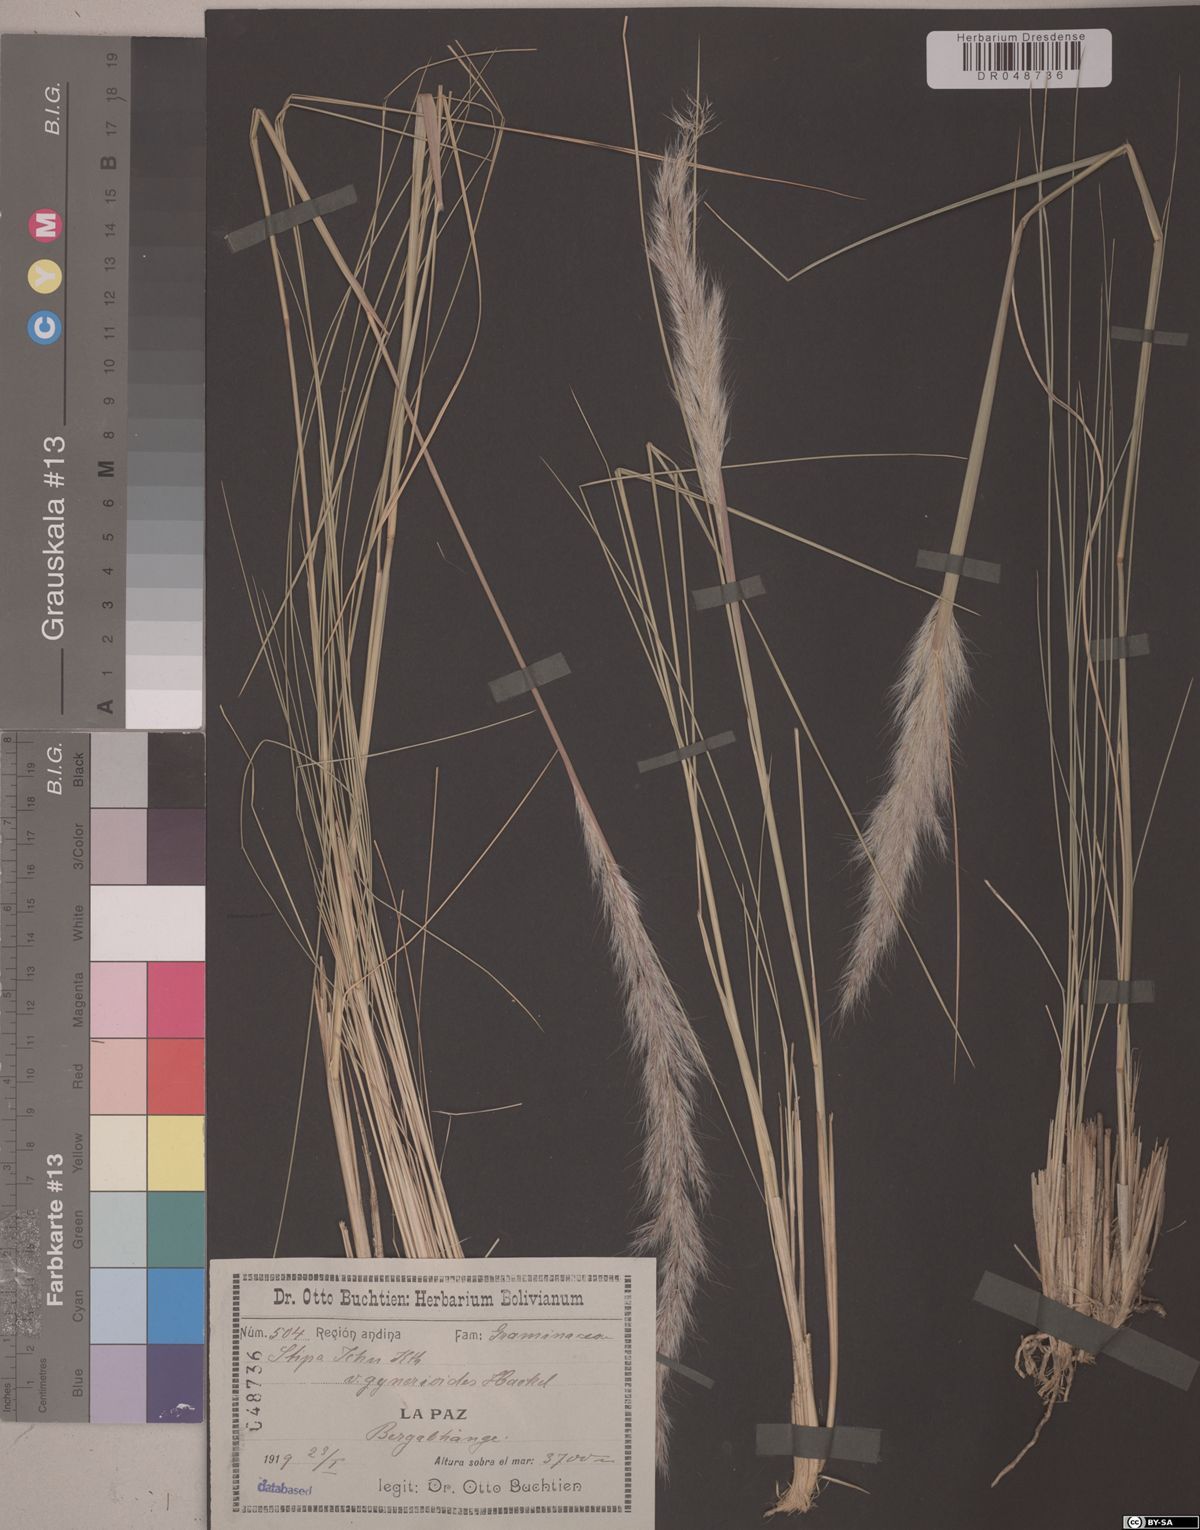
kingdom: Plantae
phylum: Tracheophyta
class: Liliopsida
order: Poales
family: Poaceae
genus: Jarava
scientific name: Jarava ichu
